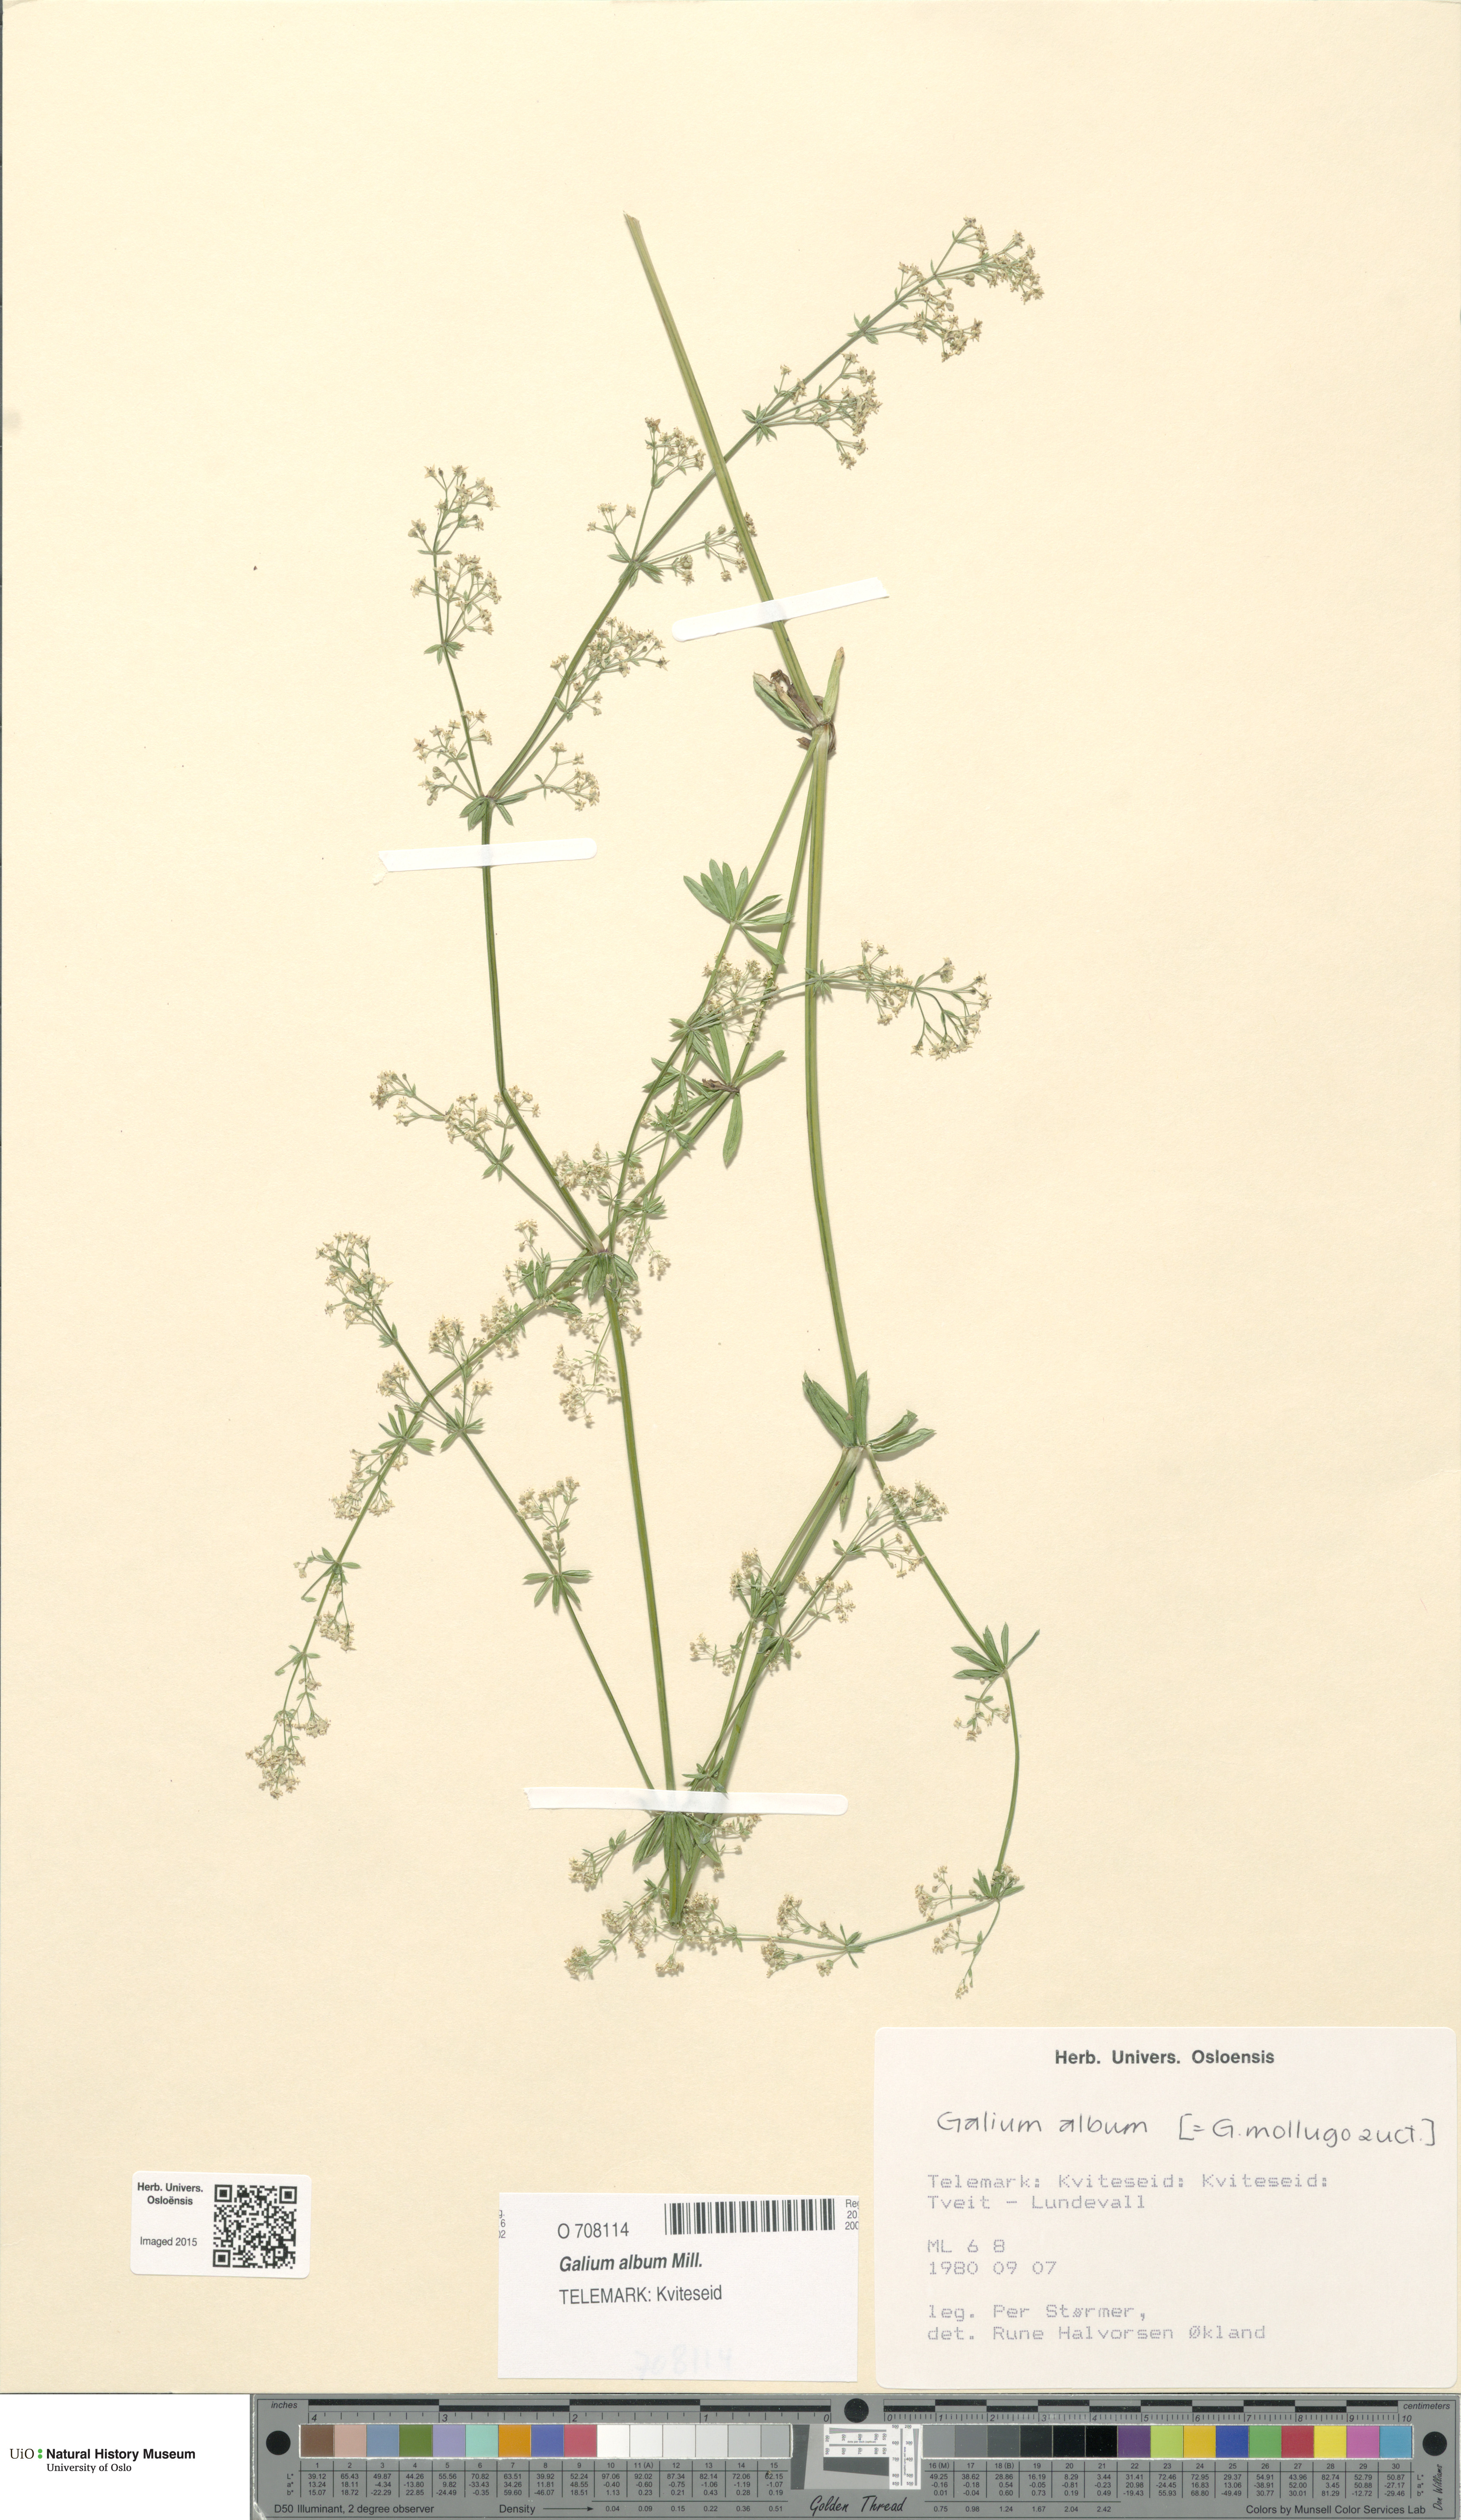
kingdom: Plantae
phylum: Tracheophyta
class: Magnoliopsida
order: Gentianales
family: Rubiaceae
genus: Galium
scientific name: Galium album
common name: White bedstraw
